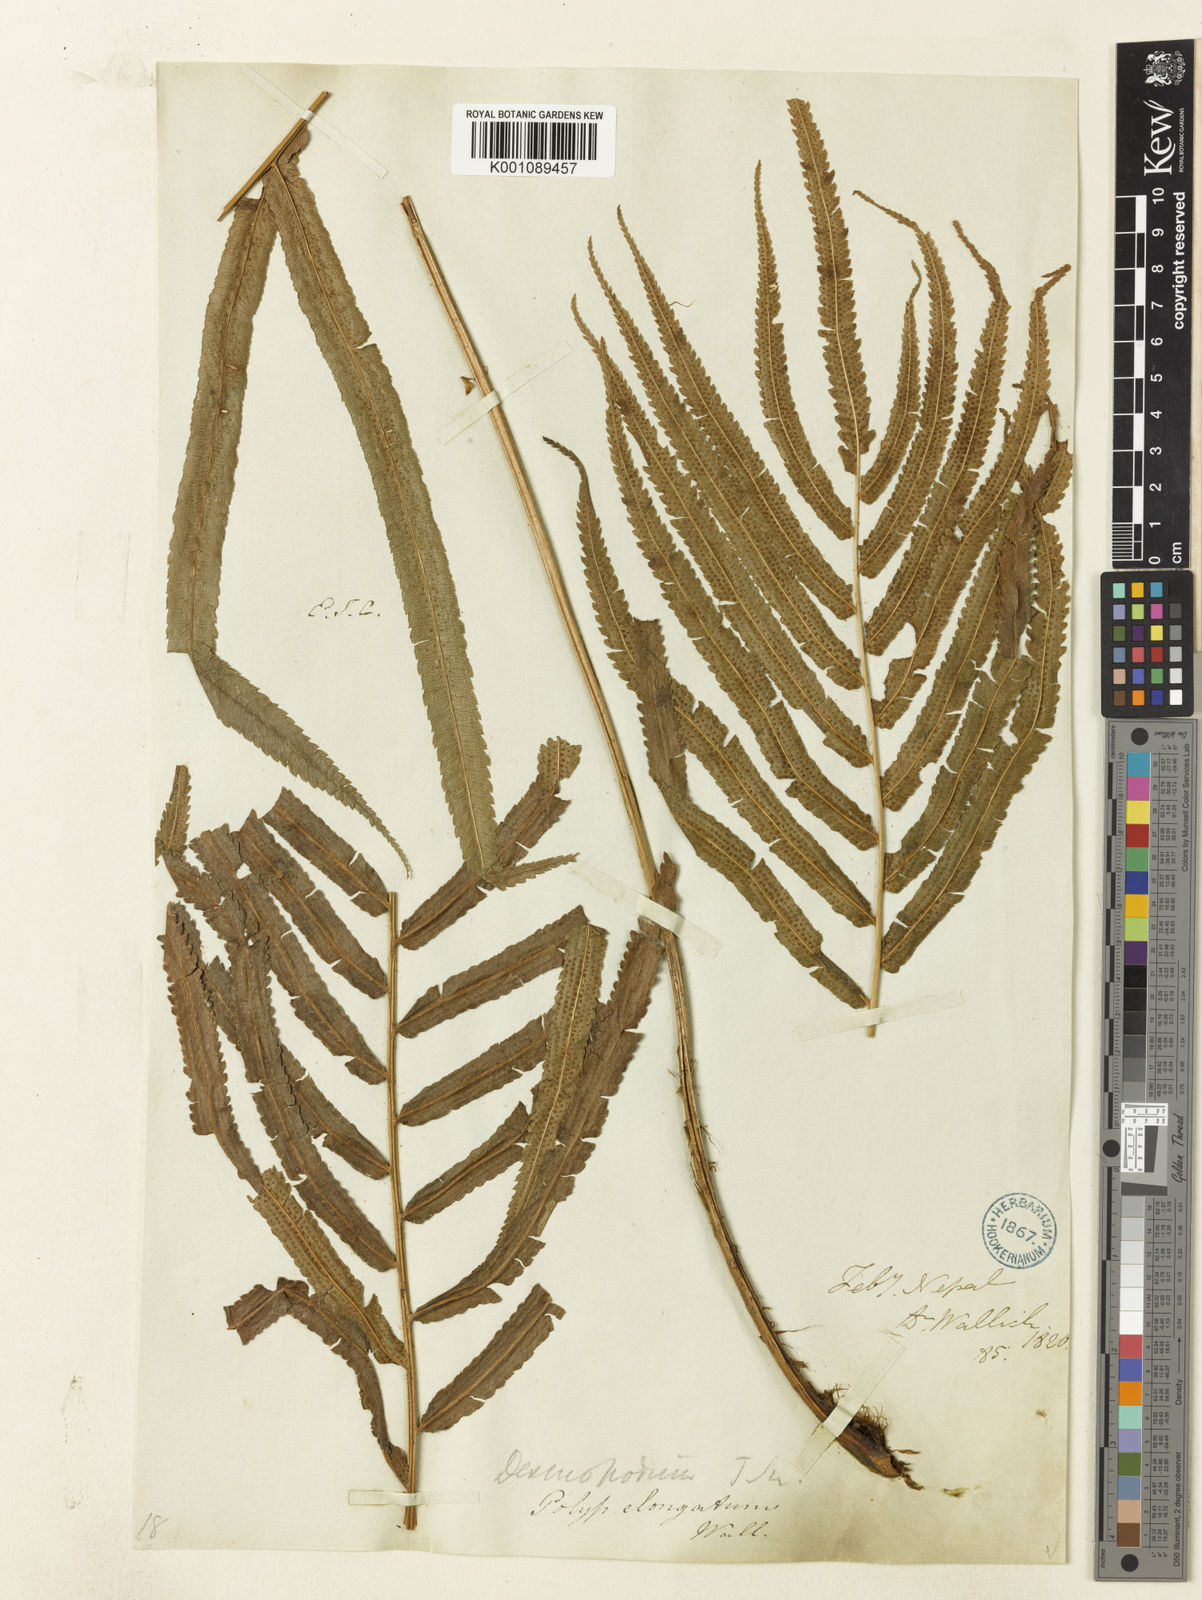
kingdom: Plantae
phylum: Tracheophyta
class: Polypodiopsida
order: Polypodiales
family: Athyriaceae
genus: Anisocampium
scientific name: Anisocampium cuspidatum
